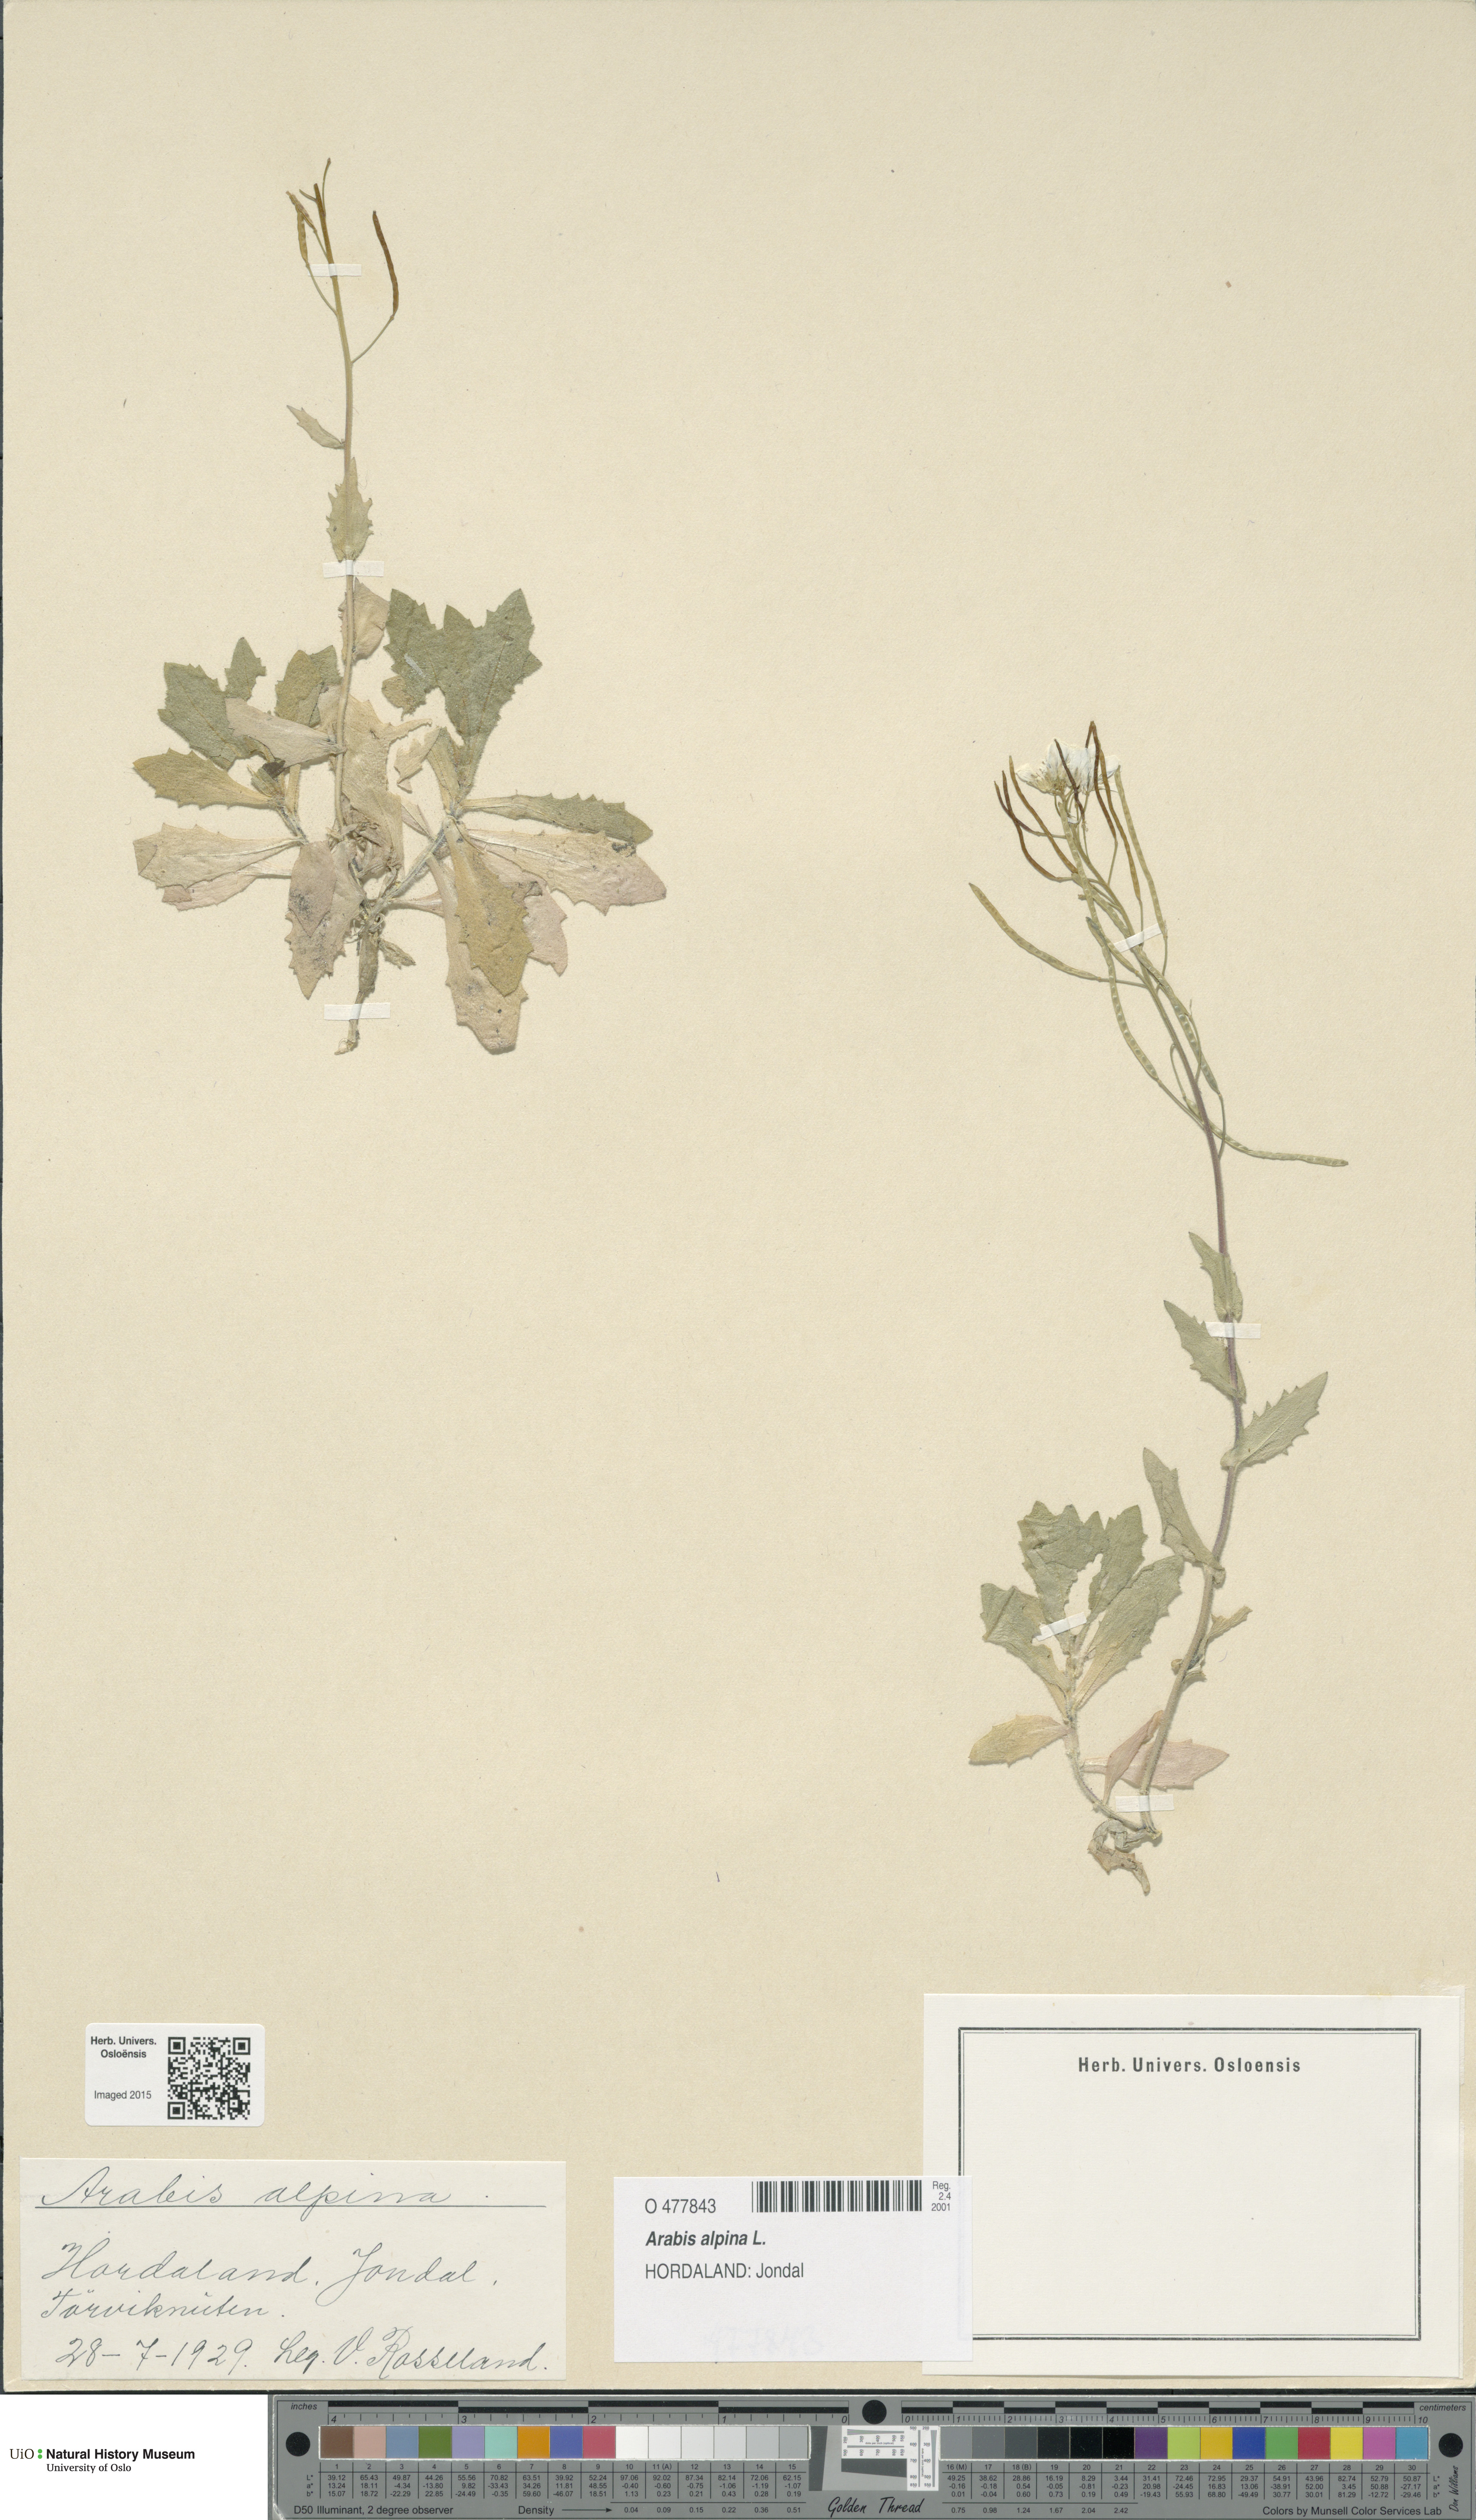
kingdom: Plantae
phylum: Tracheophyta
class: Magnoliopsida
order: Brassicales
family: Brassicaceae
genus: Arabis
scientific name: Arabis alpina
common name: Alpine rock-cress
